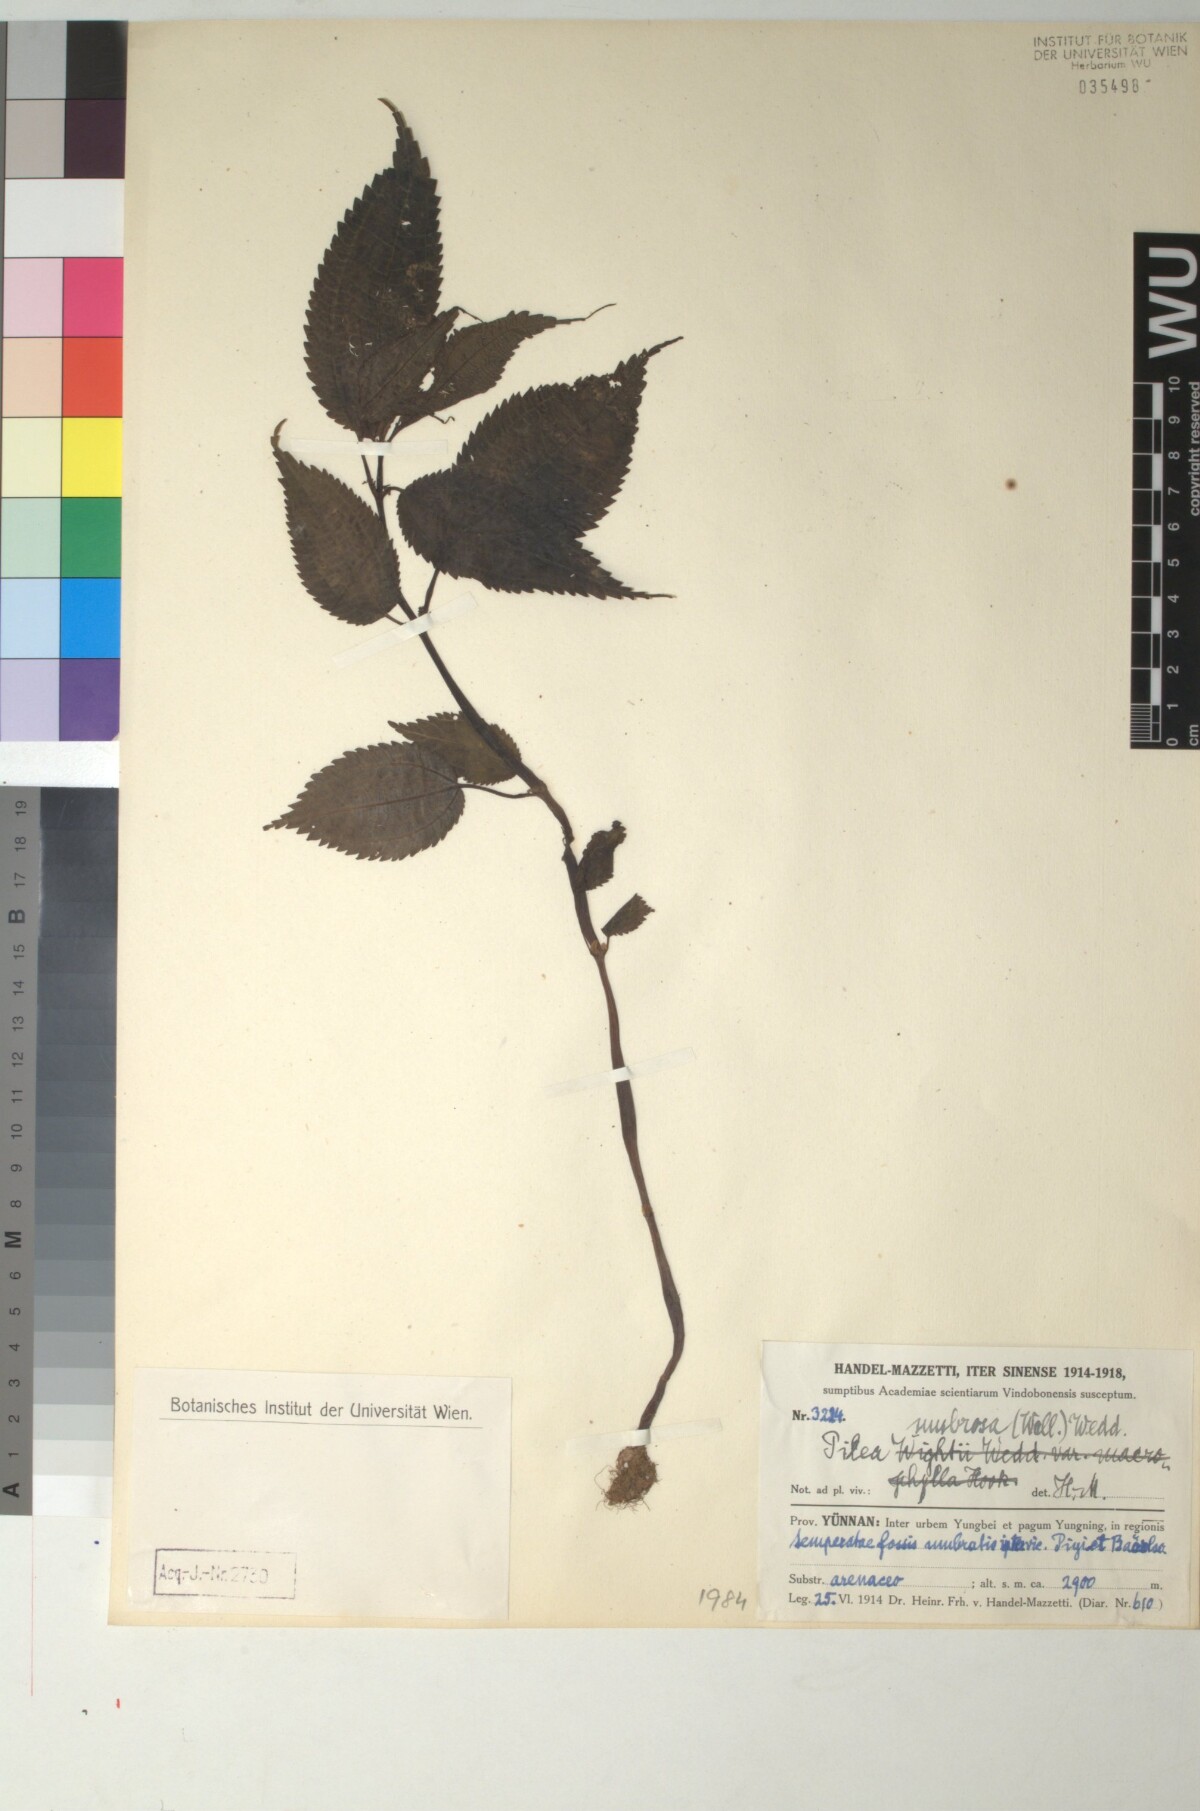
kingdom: Plantae
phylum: Tracheophyta
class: Magnoliopsida
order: Rosales
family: Urticaceae
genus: Pilea
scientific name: Pilea umbrosa
